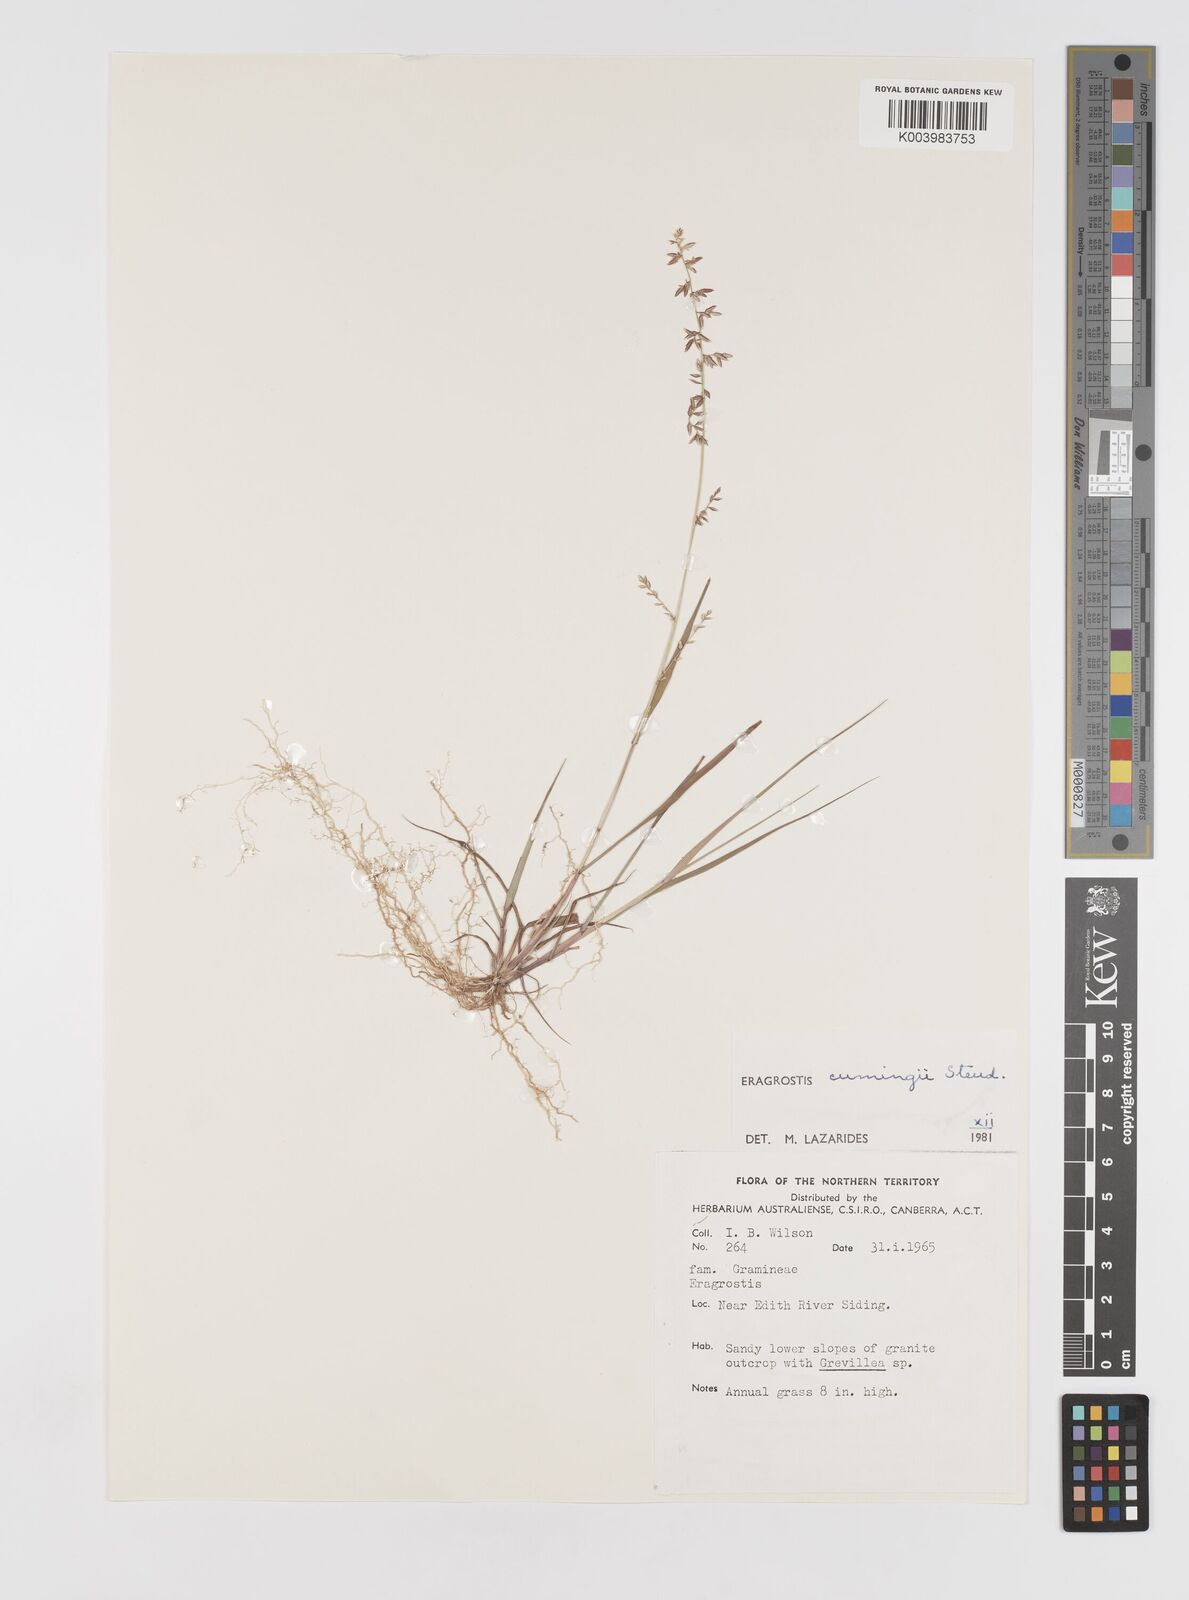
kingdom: Plantae
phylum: Tracheophyta
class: Liliopsida
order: Poales
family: Poaceae
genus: Eragrostis
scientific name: Eragrostis cumingii
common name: Cuming's lovegrass
